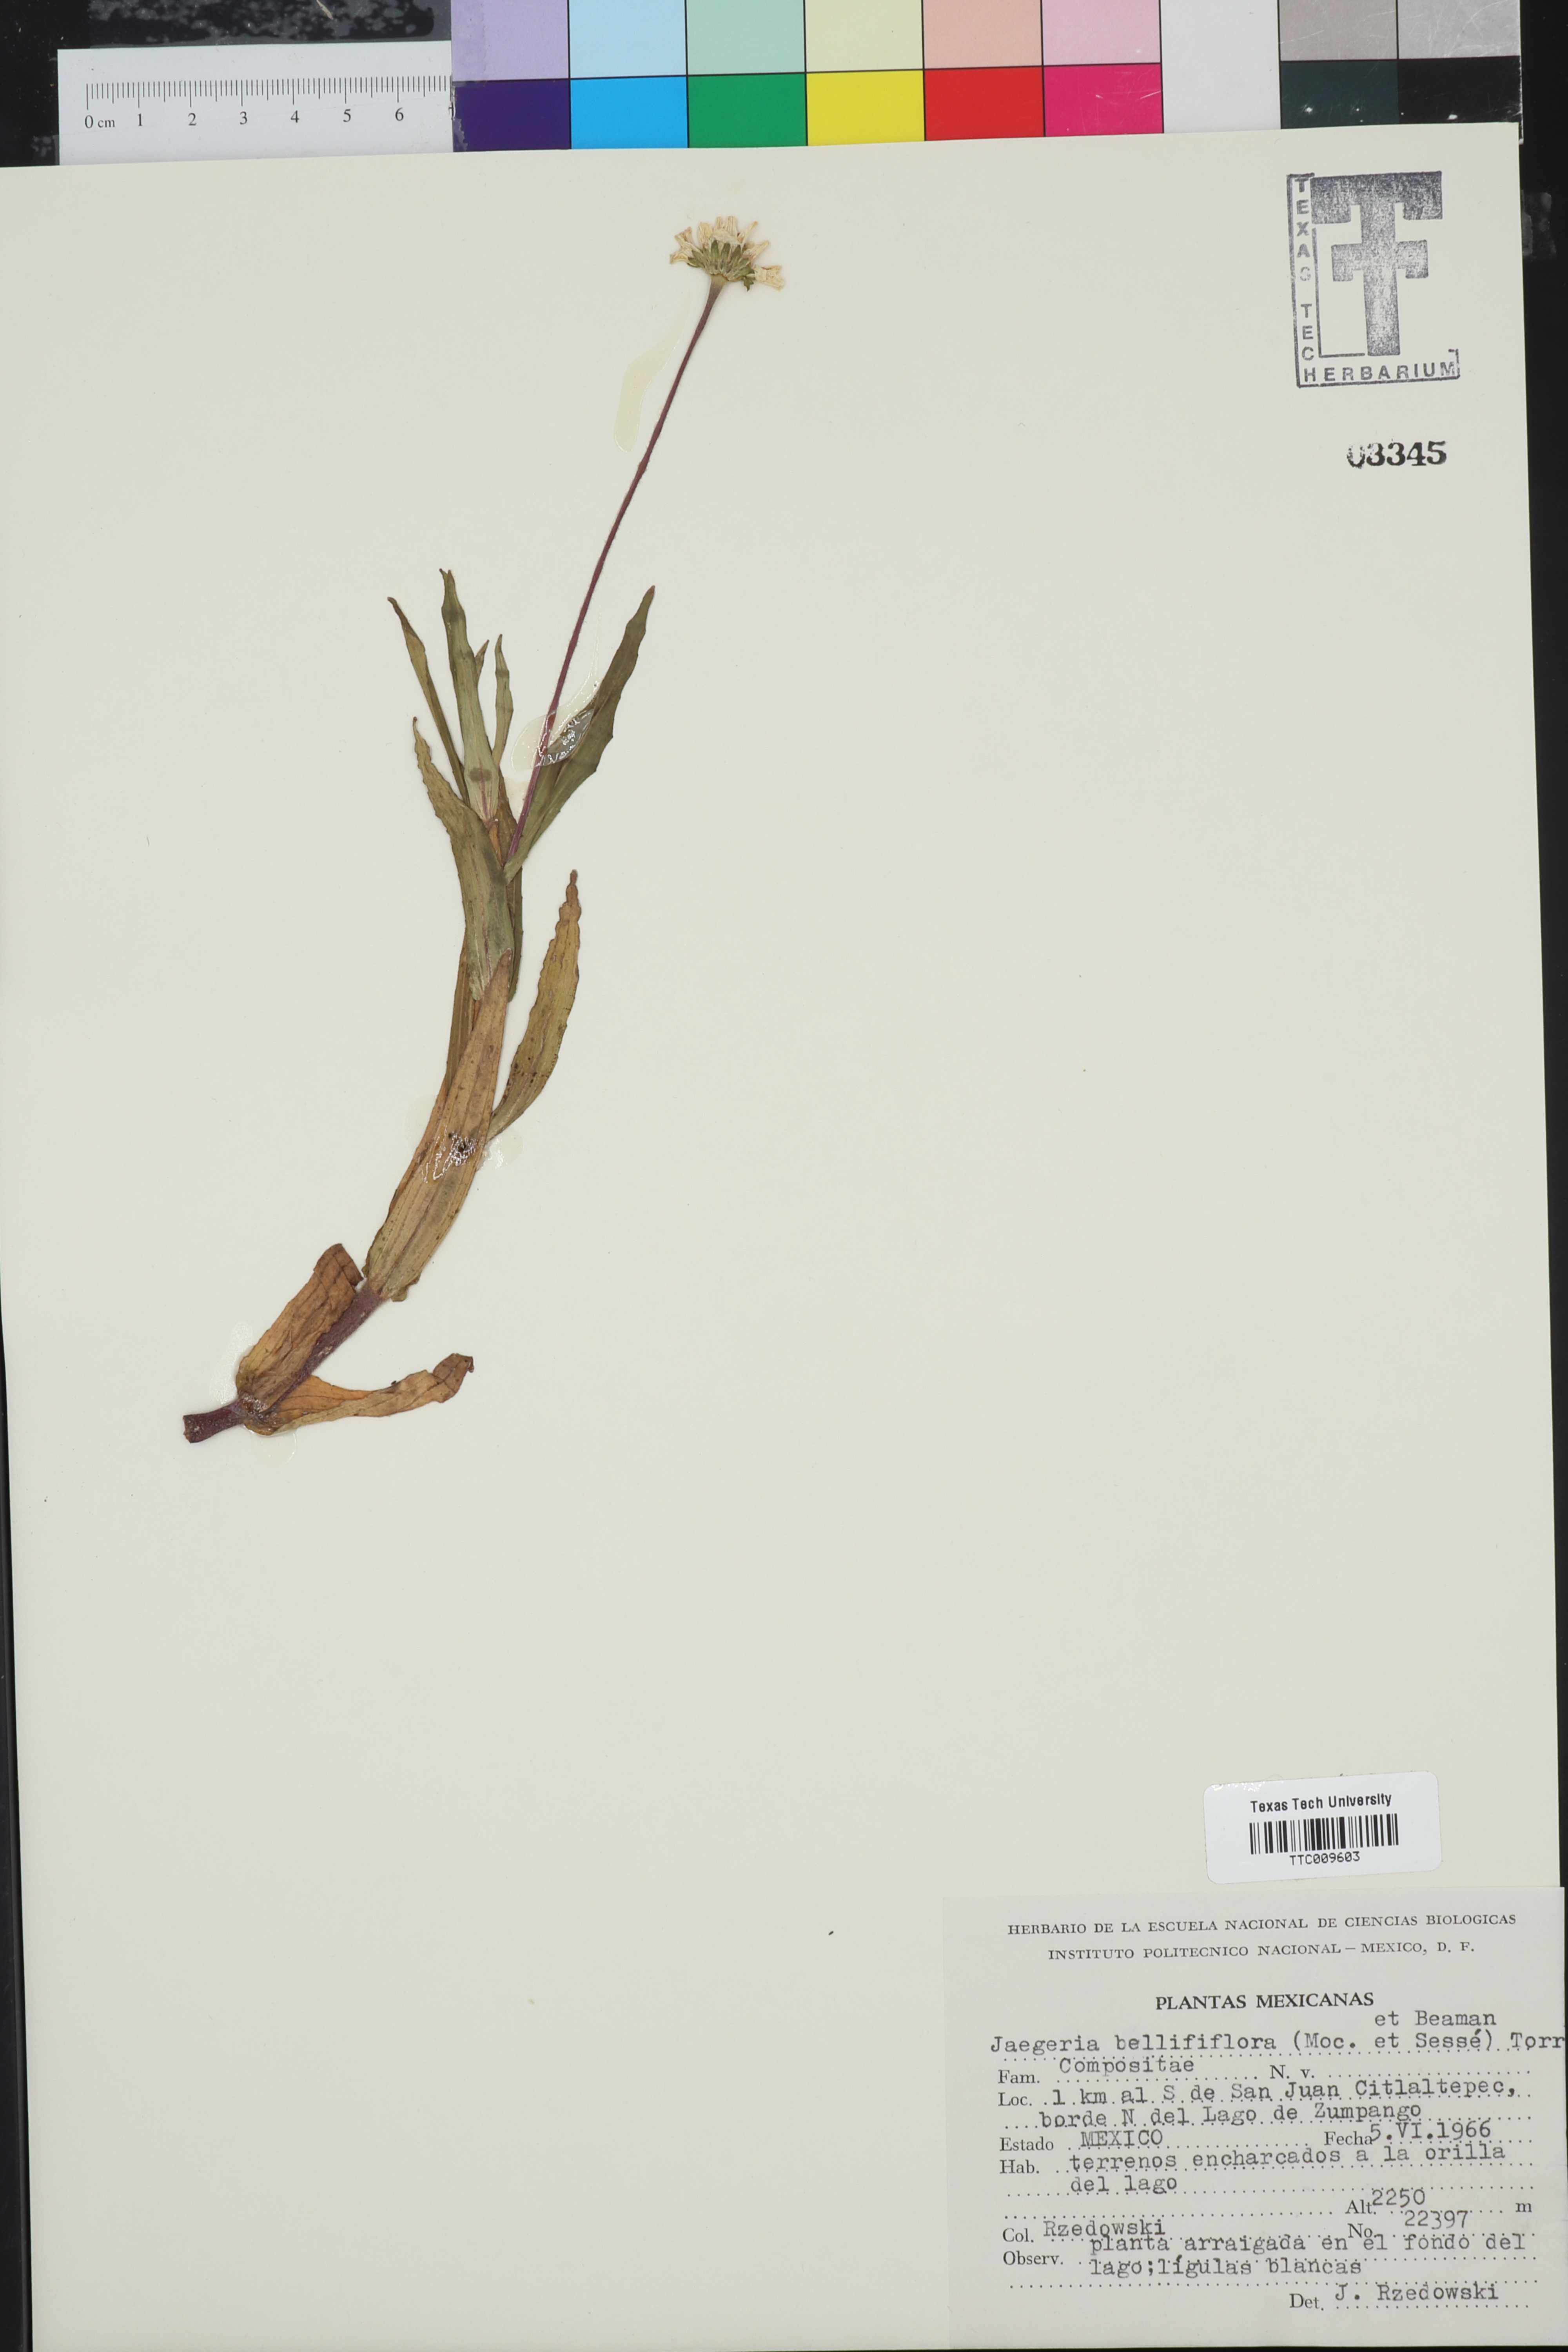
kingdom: Plantae
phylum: Tracheophyta
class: Magnoliopsida
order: Asterales
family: Asteraceae
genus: Jaegeria
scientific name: Jaegeria bellidiflora
